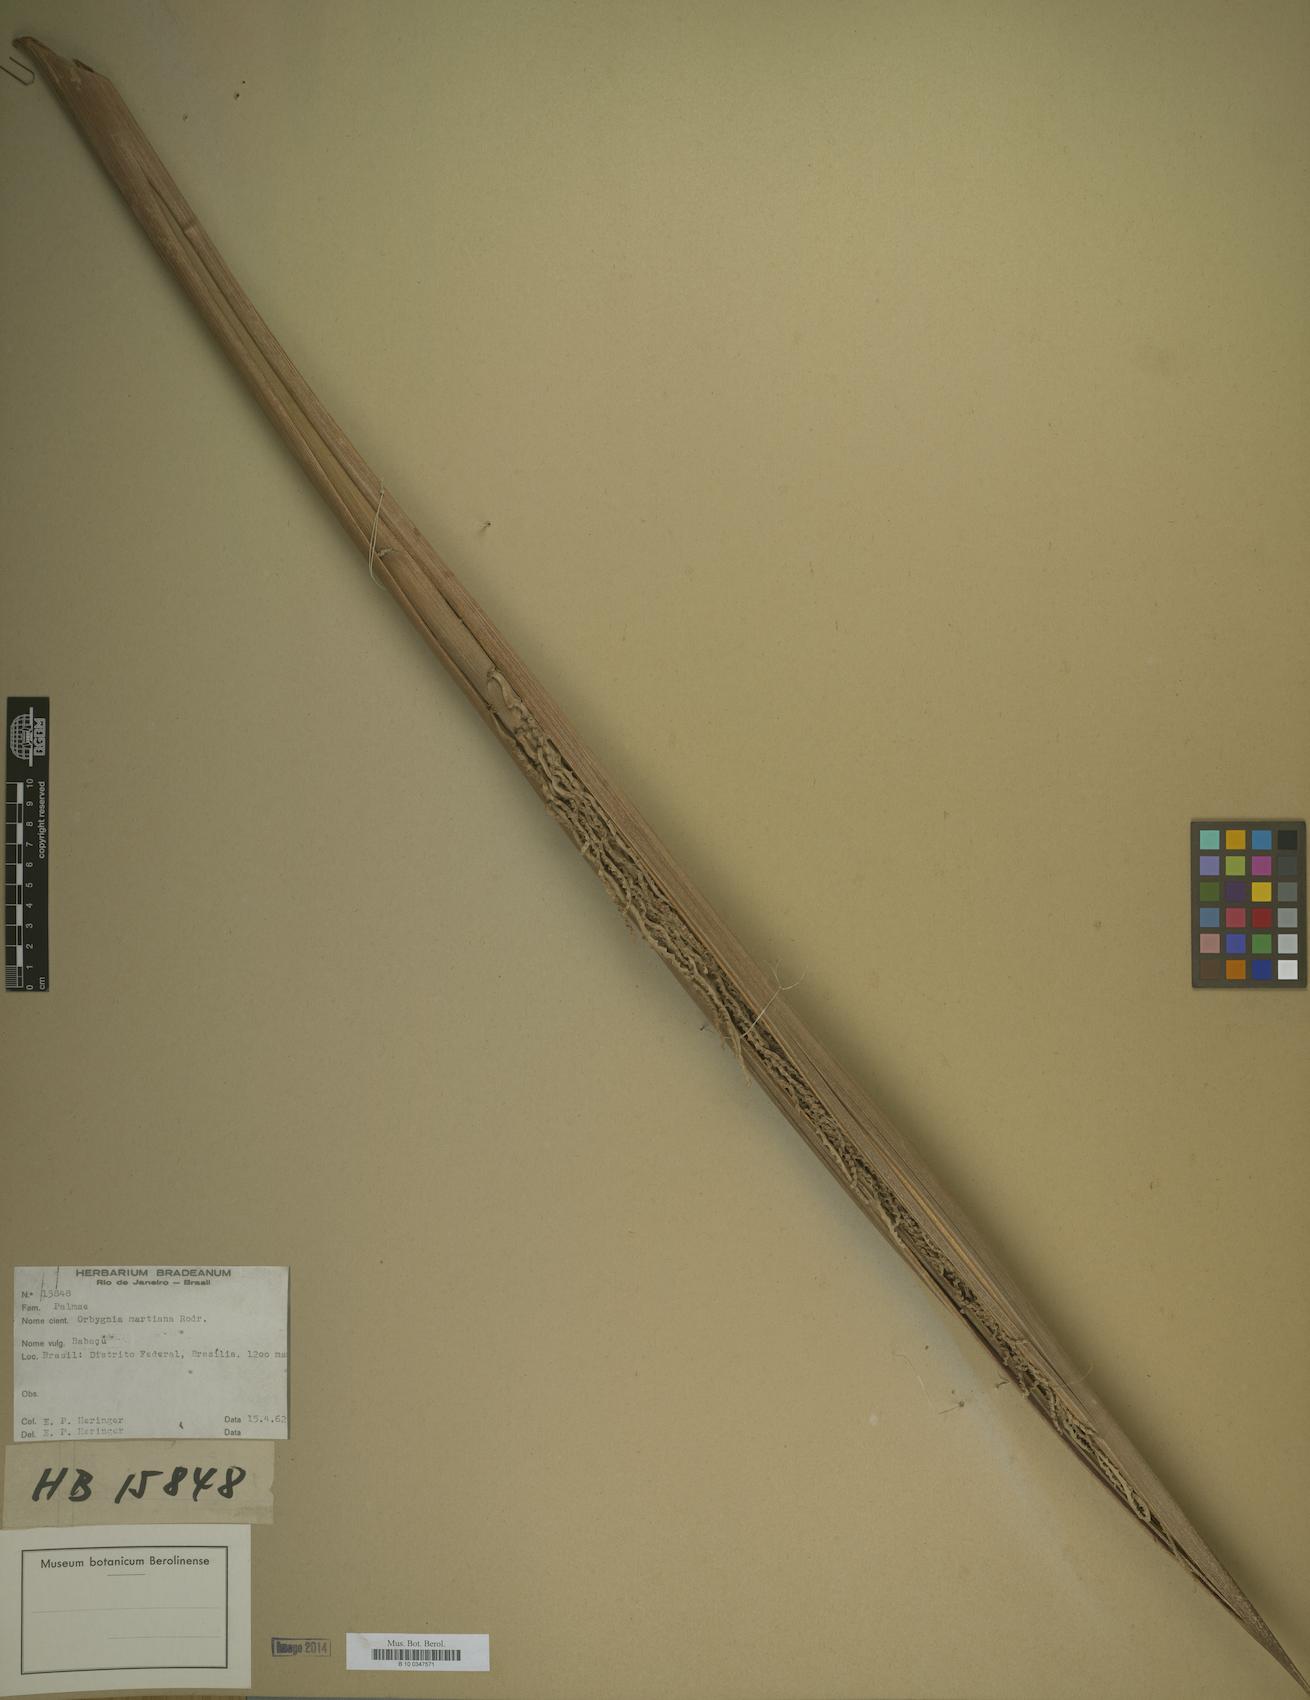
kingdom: Plantae
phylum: Tracheophyta
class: Liliopsida
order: Arecales
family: Arecaceae
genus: Attalea
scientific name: Attalea speciosa
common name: Babassu palm
